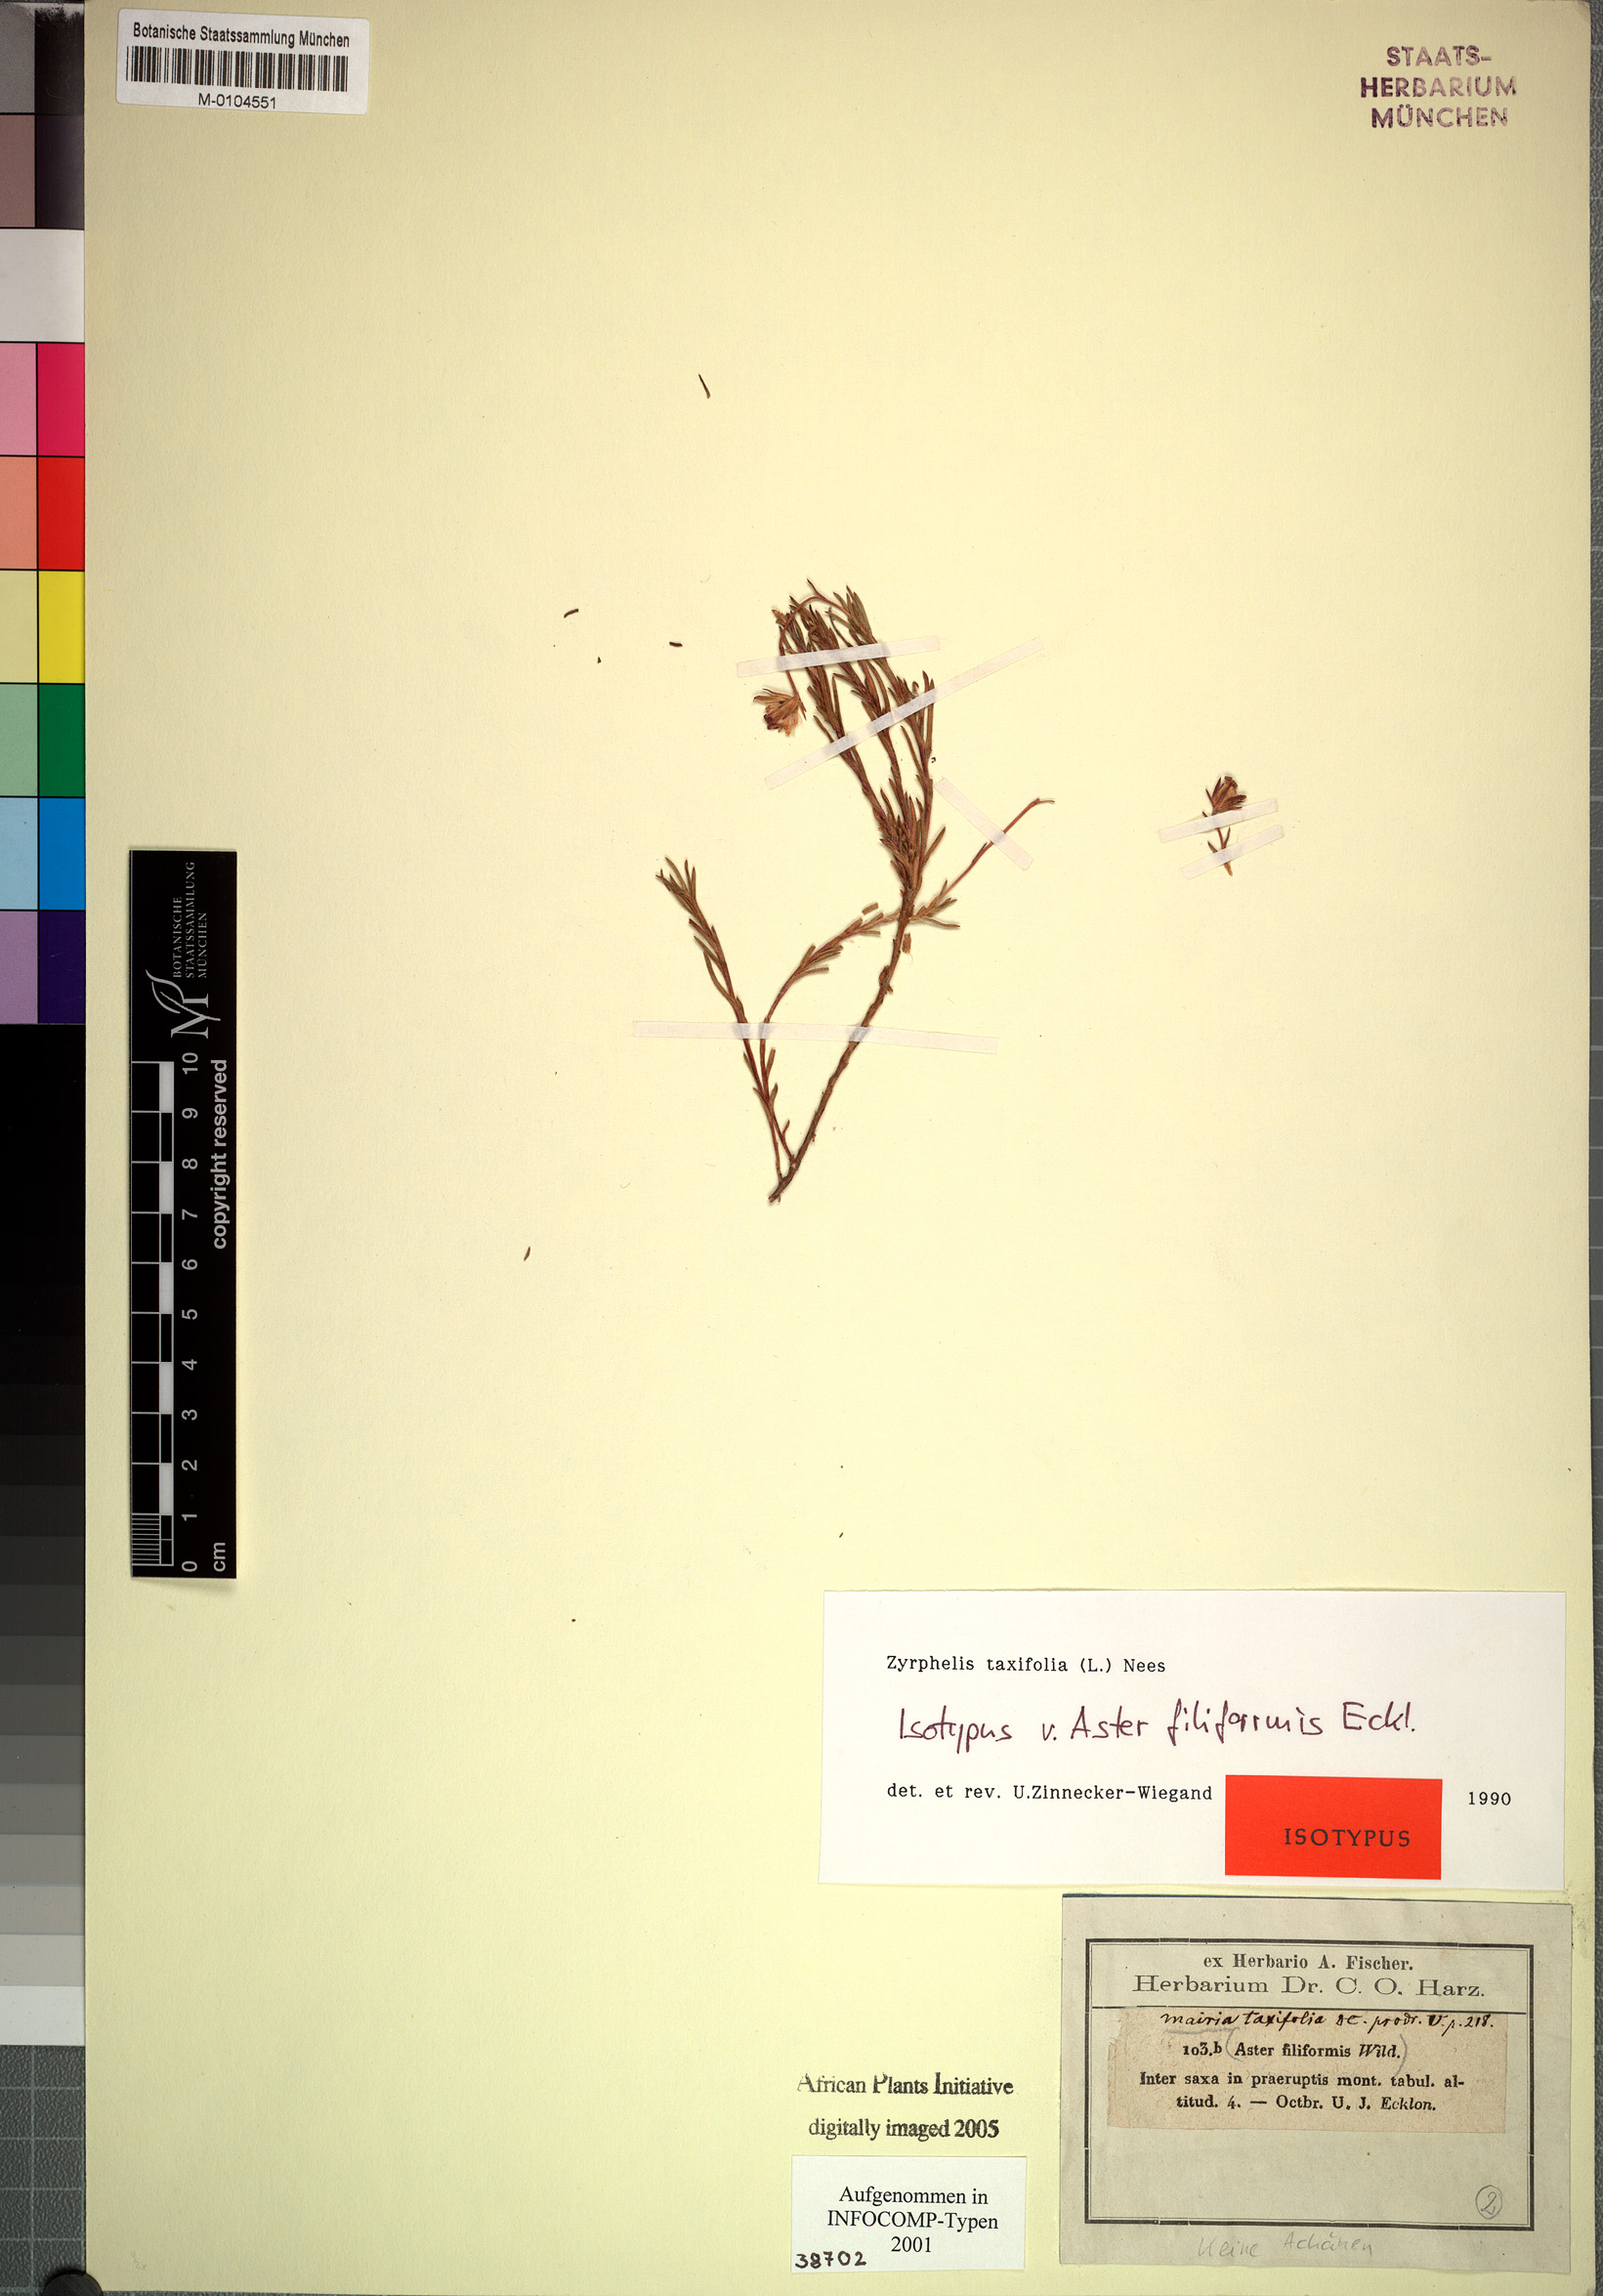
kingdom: Plantae
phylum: Tracheophyta
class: Magnoliopsida
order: Asterales
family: Asteraceae
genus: Zyrphelis
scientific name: Zyrphelis taxifolia
